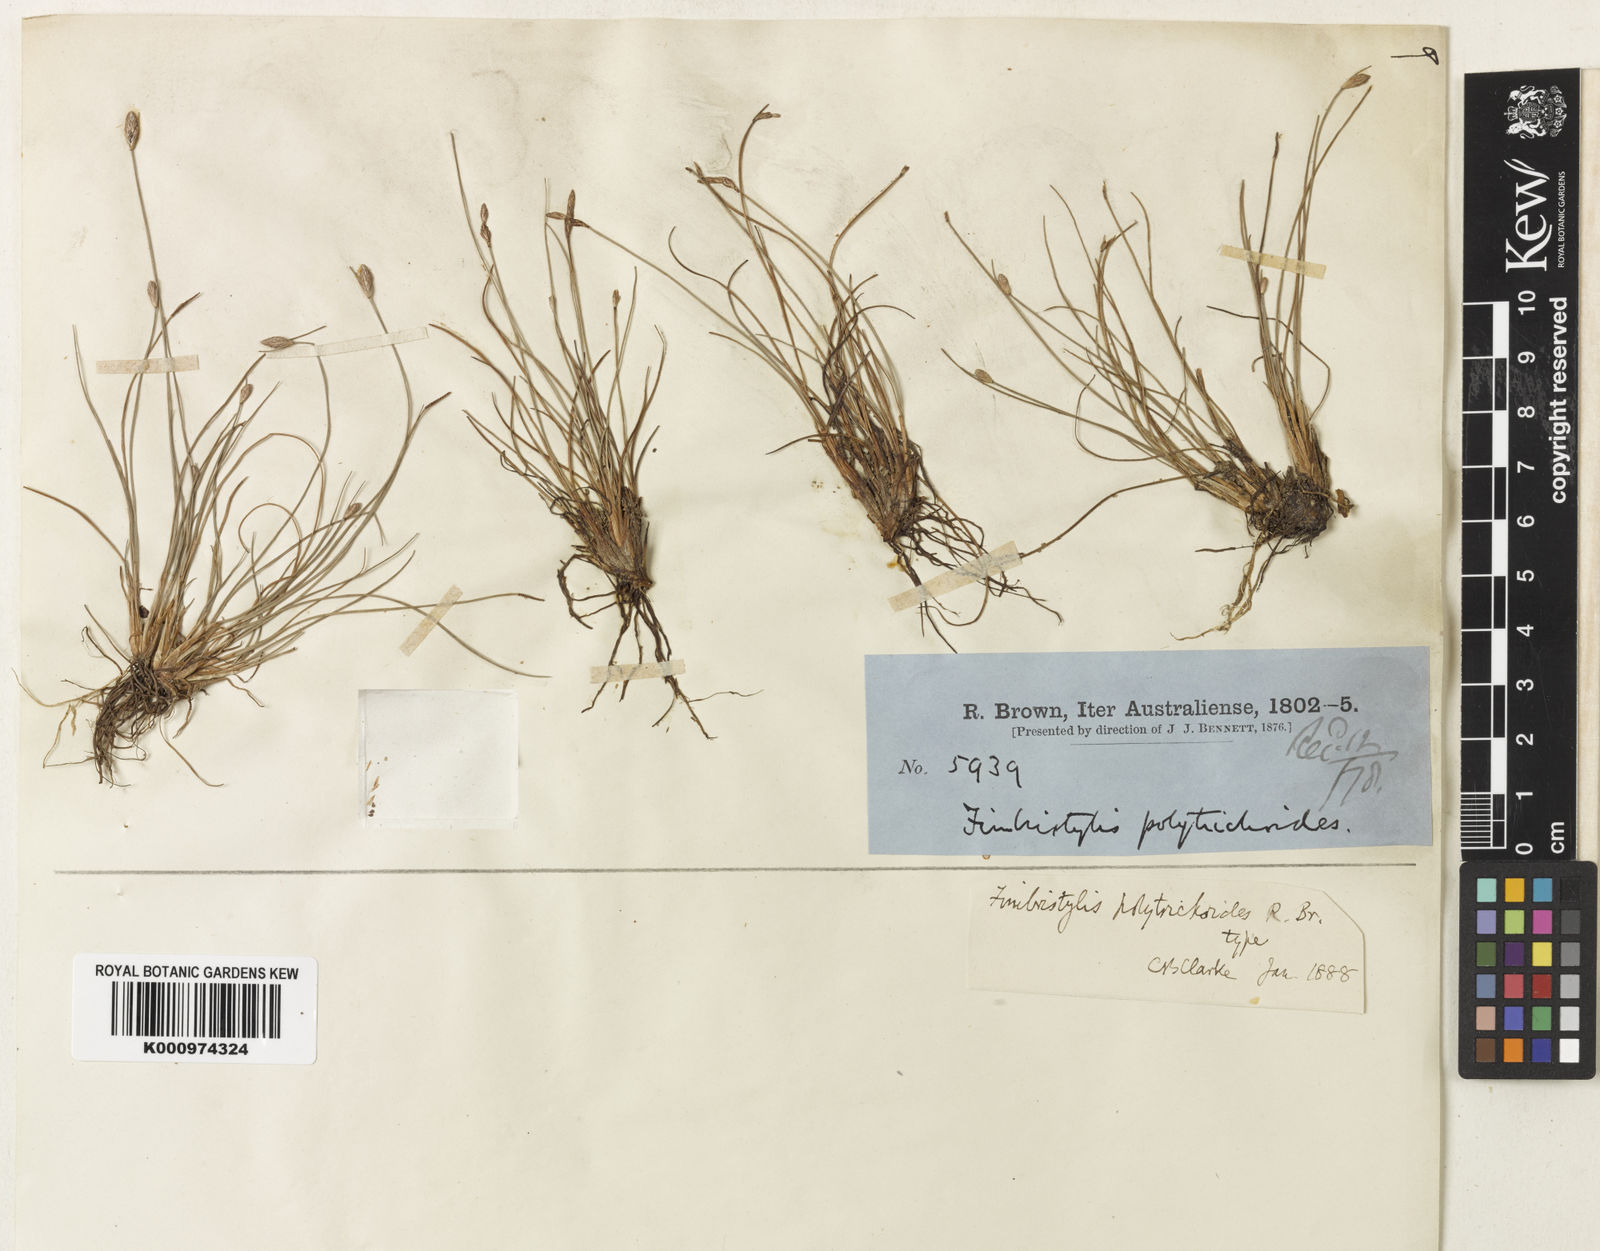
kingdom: Plantae
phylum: Tracheophyta
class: Liliopsida
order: Poales
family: Cyperaceae
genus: Fimbristylis
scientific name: Fimbristylis
